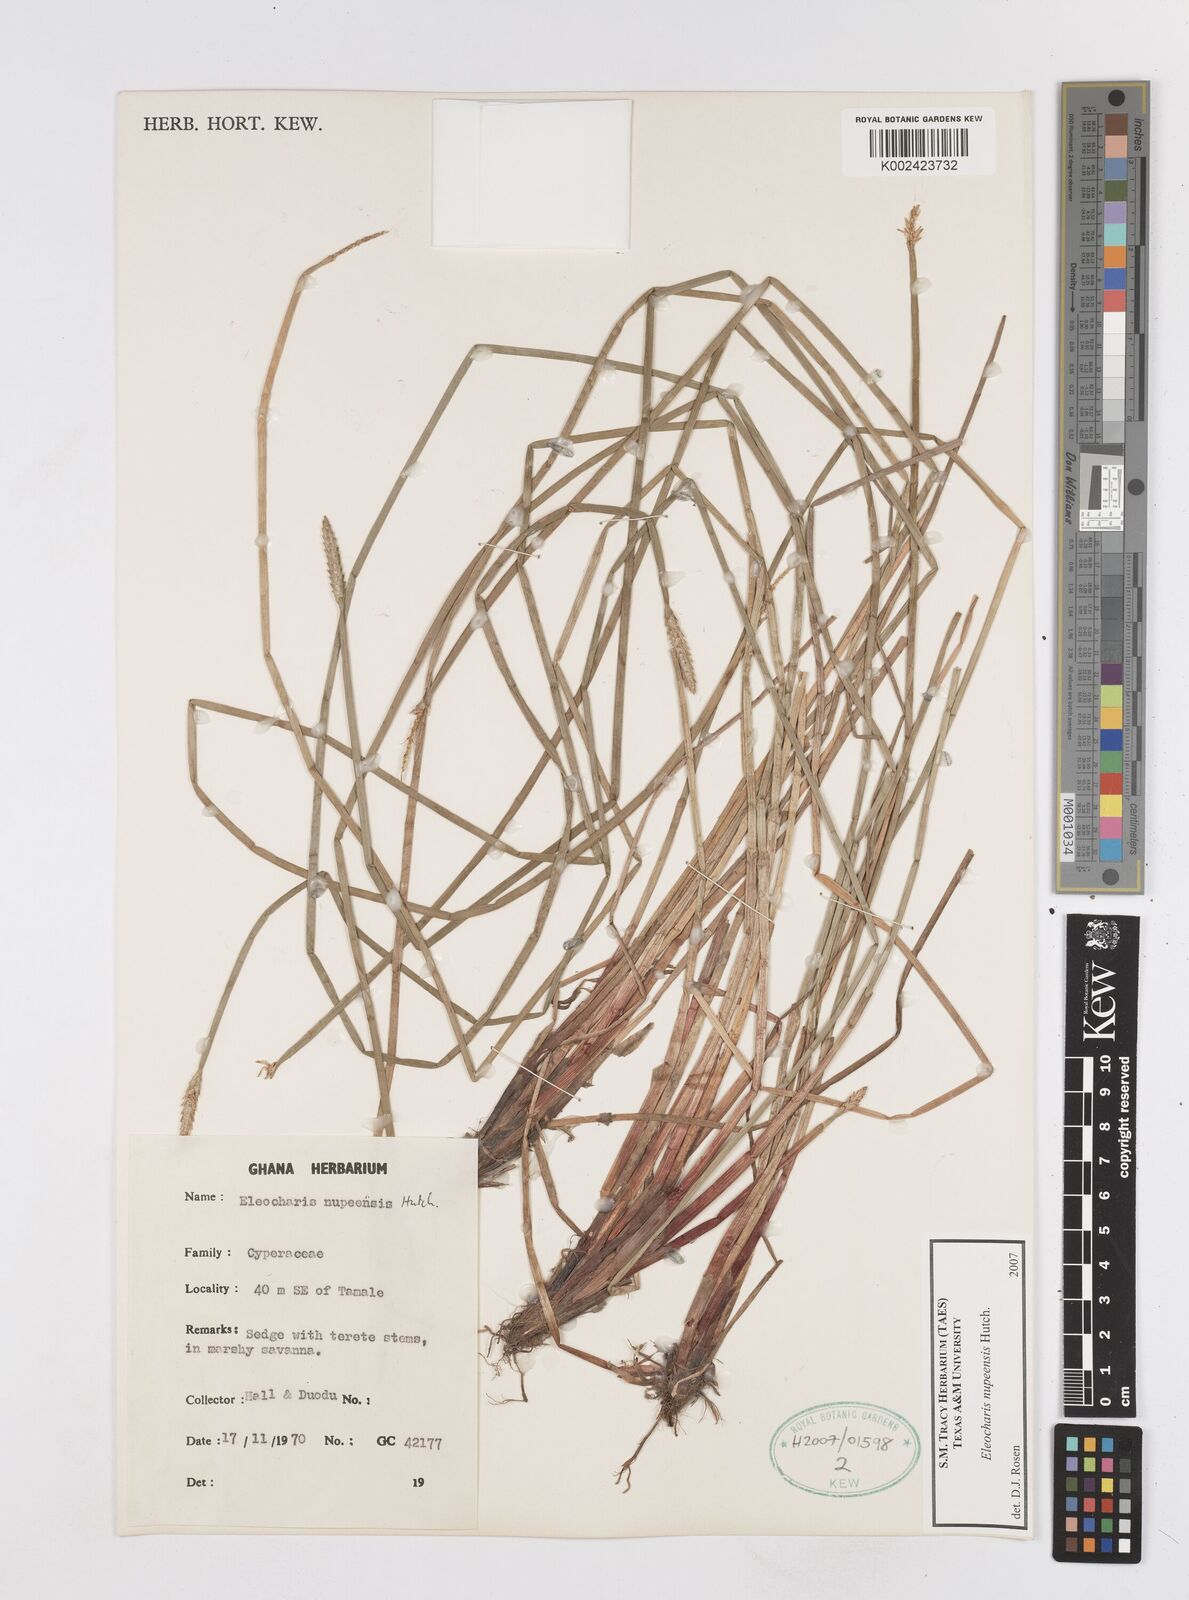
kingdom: Plantae
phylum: Tracheophyta
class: Liliopsida
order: Poales
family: Cyperaceae
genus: Eleocharis
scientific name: Eleocharis nupeensis
